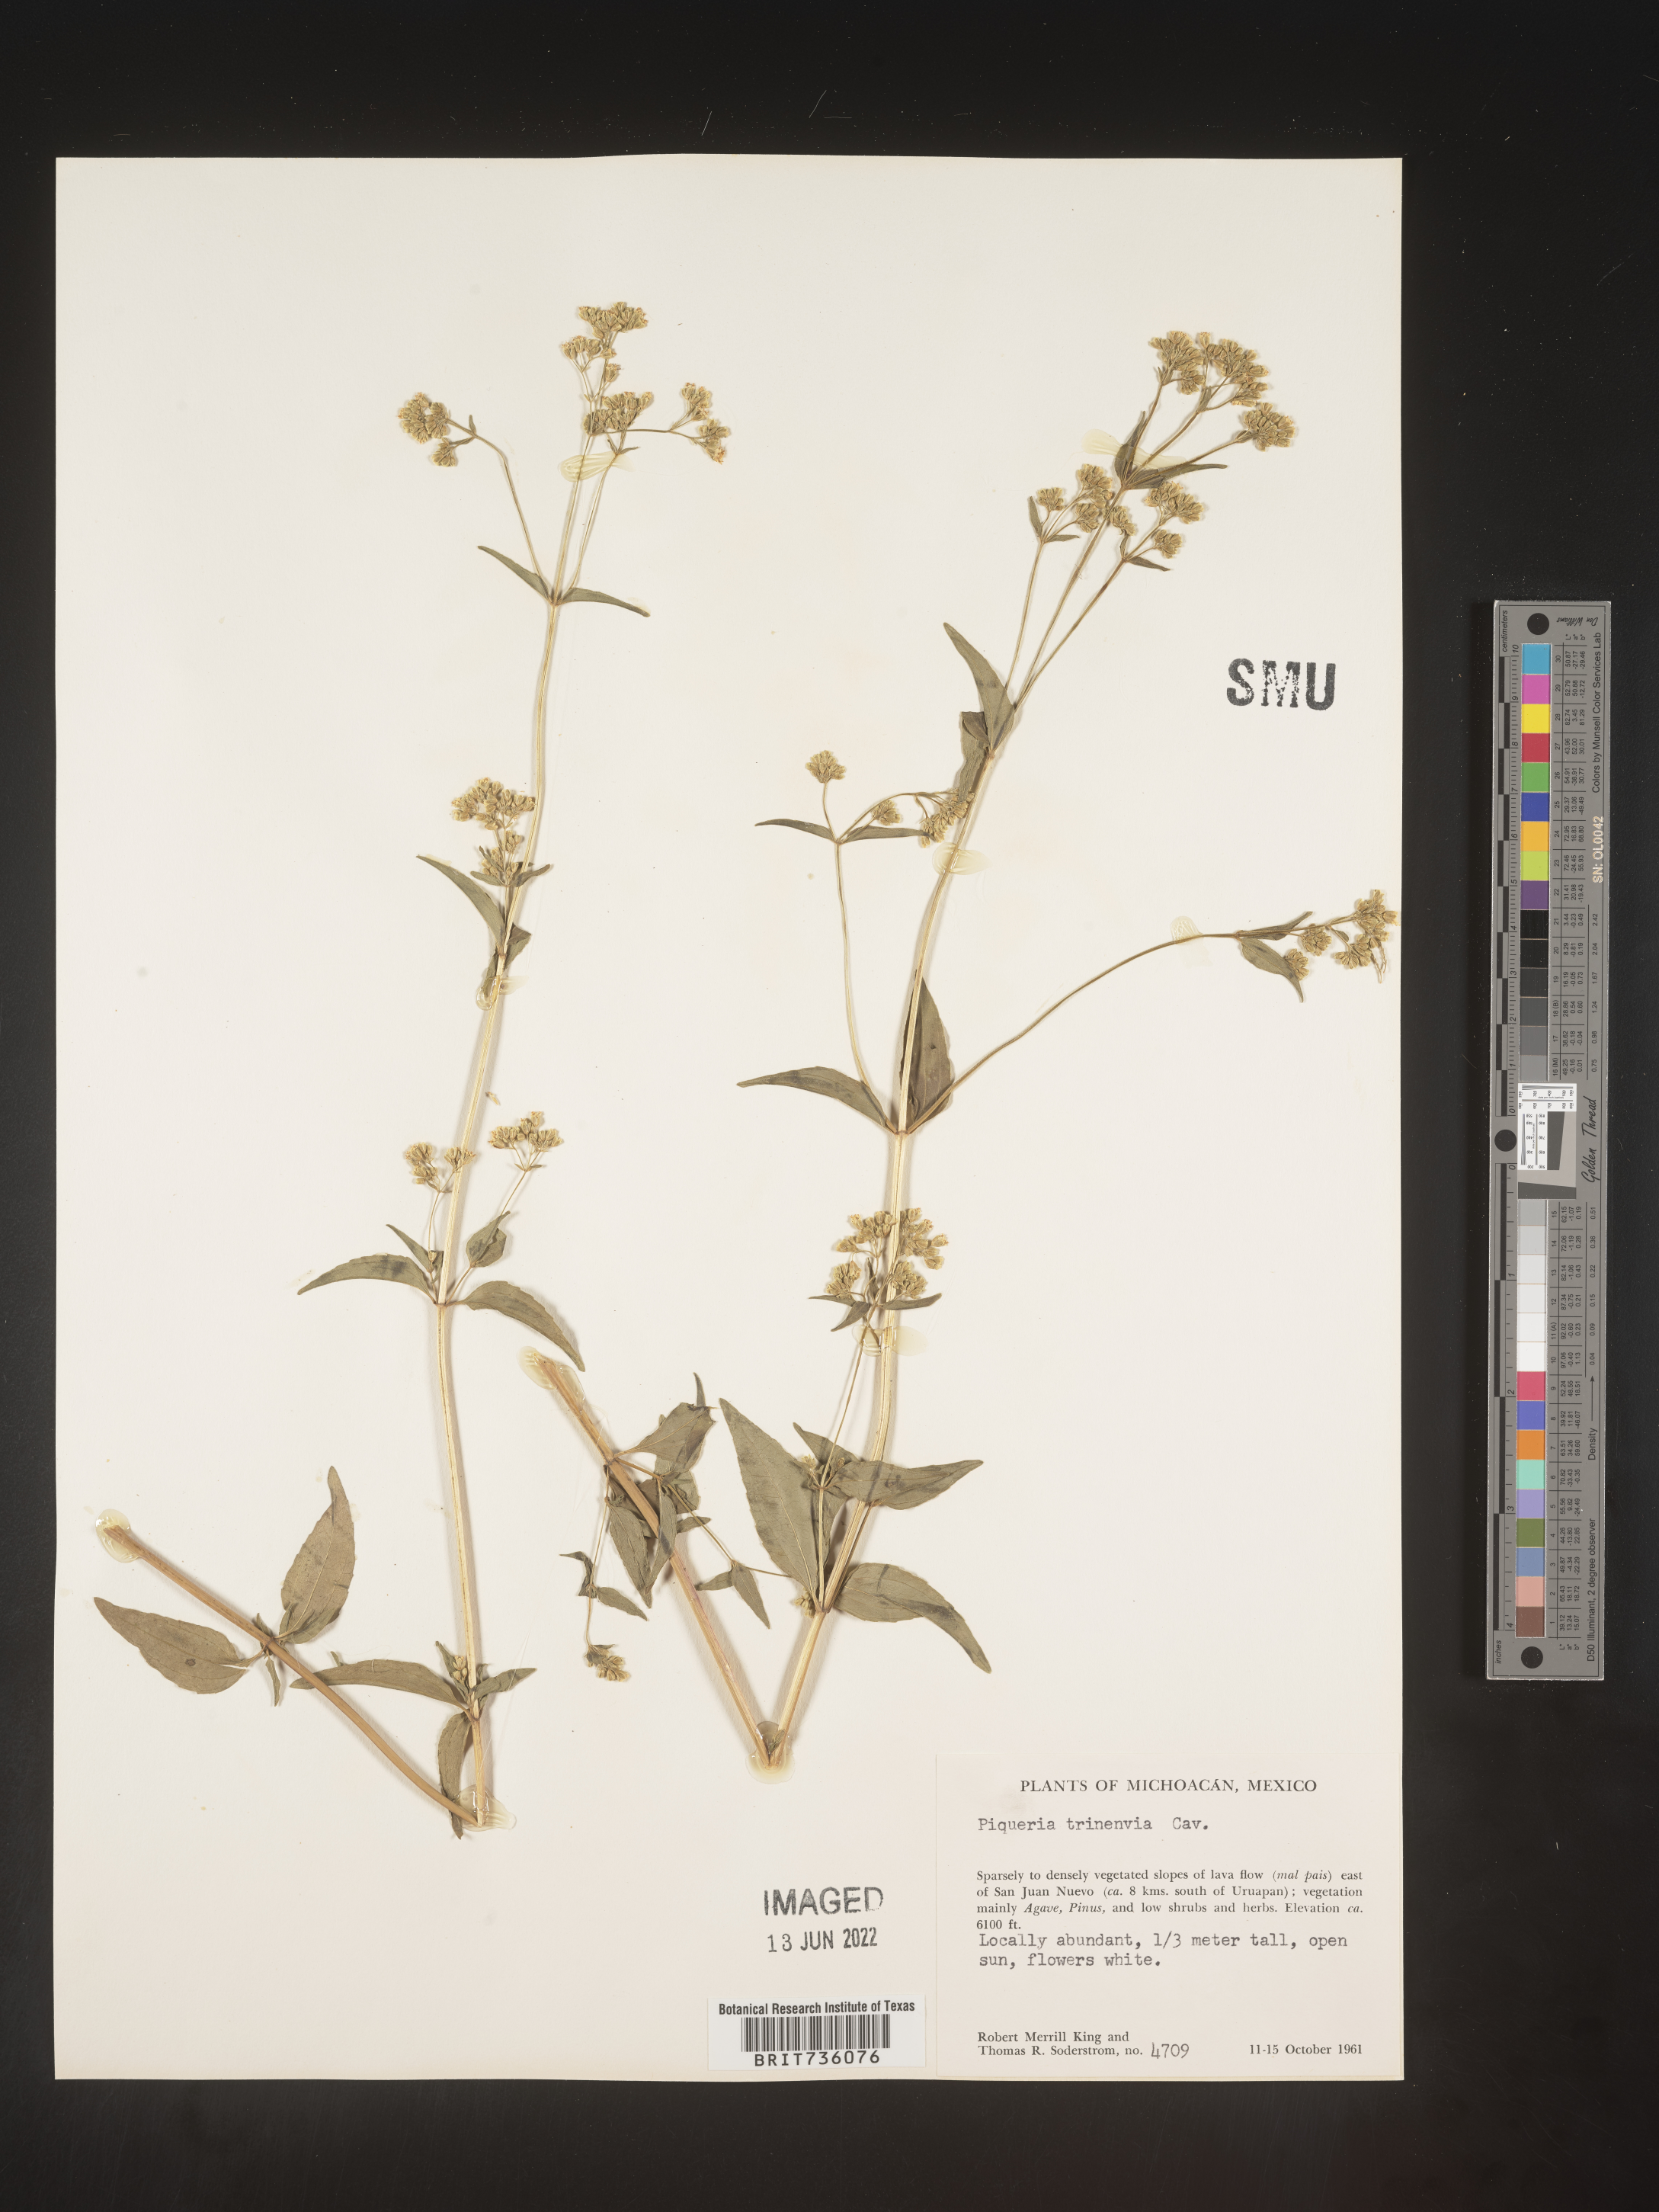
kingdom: Plantae
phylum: Tracheophyta
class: Magnoliopsida
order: Asterales
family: Asteraceae
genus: Piqueria
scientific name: Piqueria
